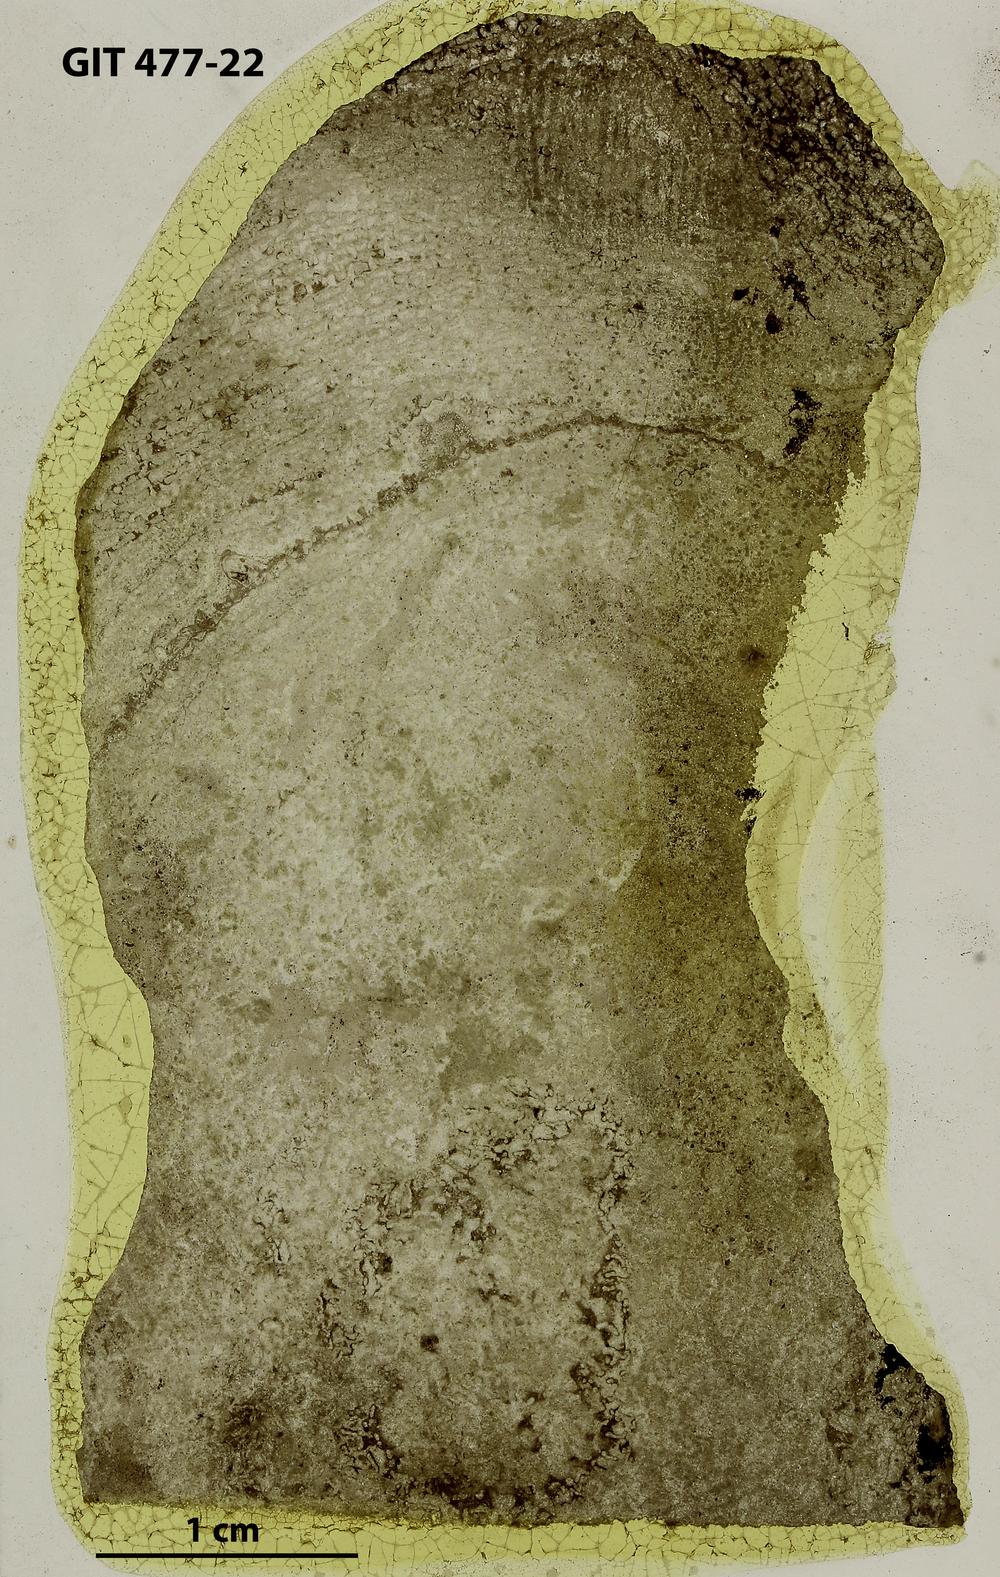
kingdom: Animalia
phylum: Porifera
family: Labechiidae
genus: Stromatocerium
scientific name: Stromatocerium rugosum
